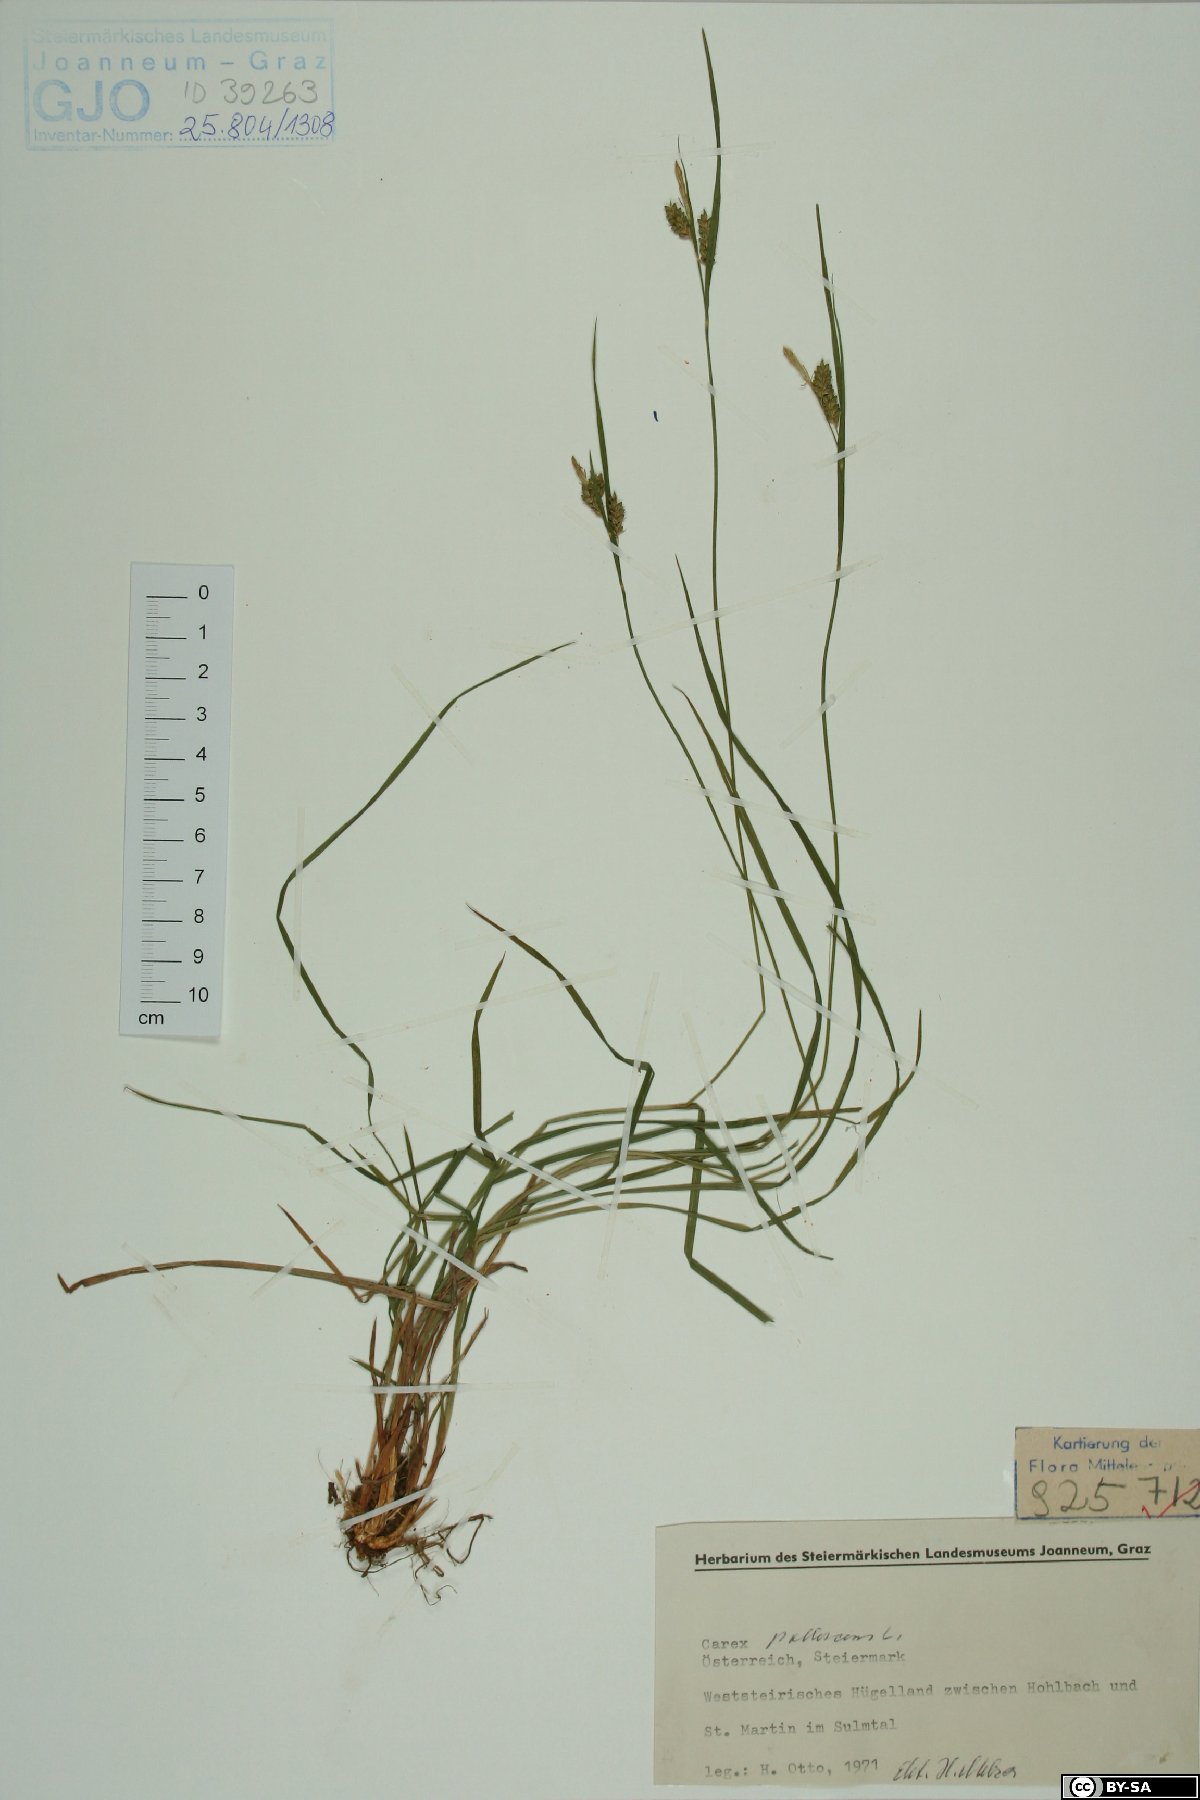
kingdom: Plantae
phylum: Tracheophyta
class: Liliopsida
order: Poales
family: Cyperaceae
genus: Carex
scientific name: Carex pallescens
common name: Pale sedge
